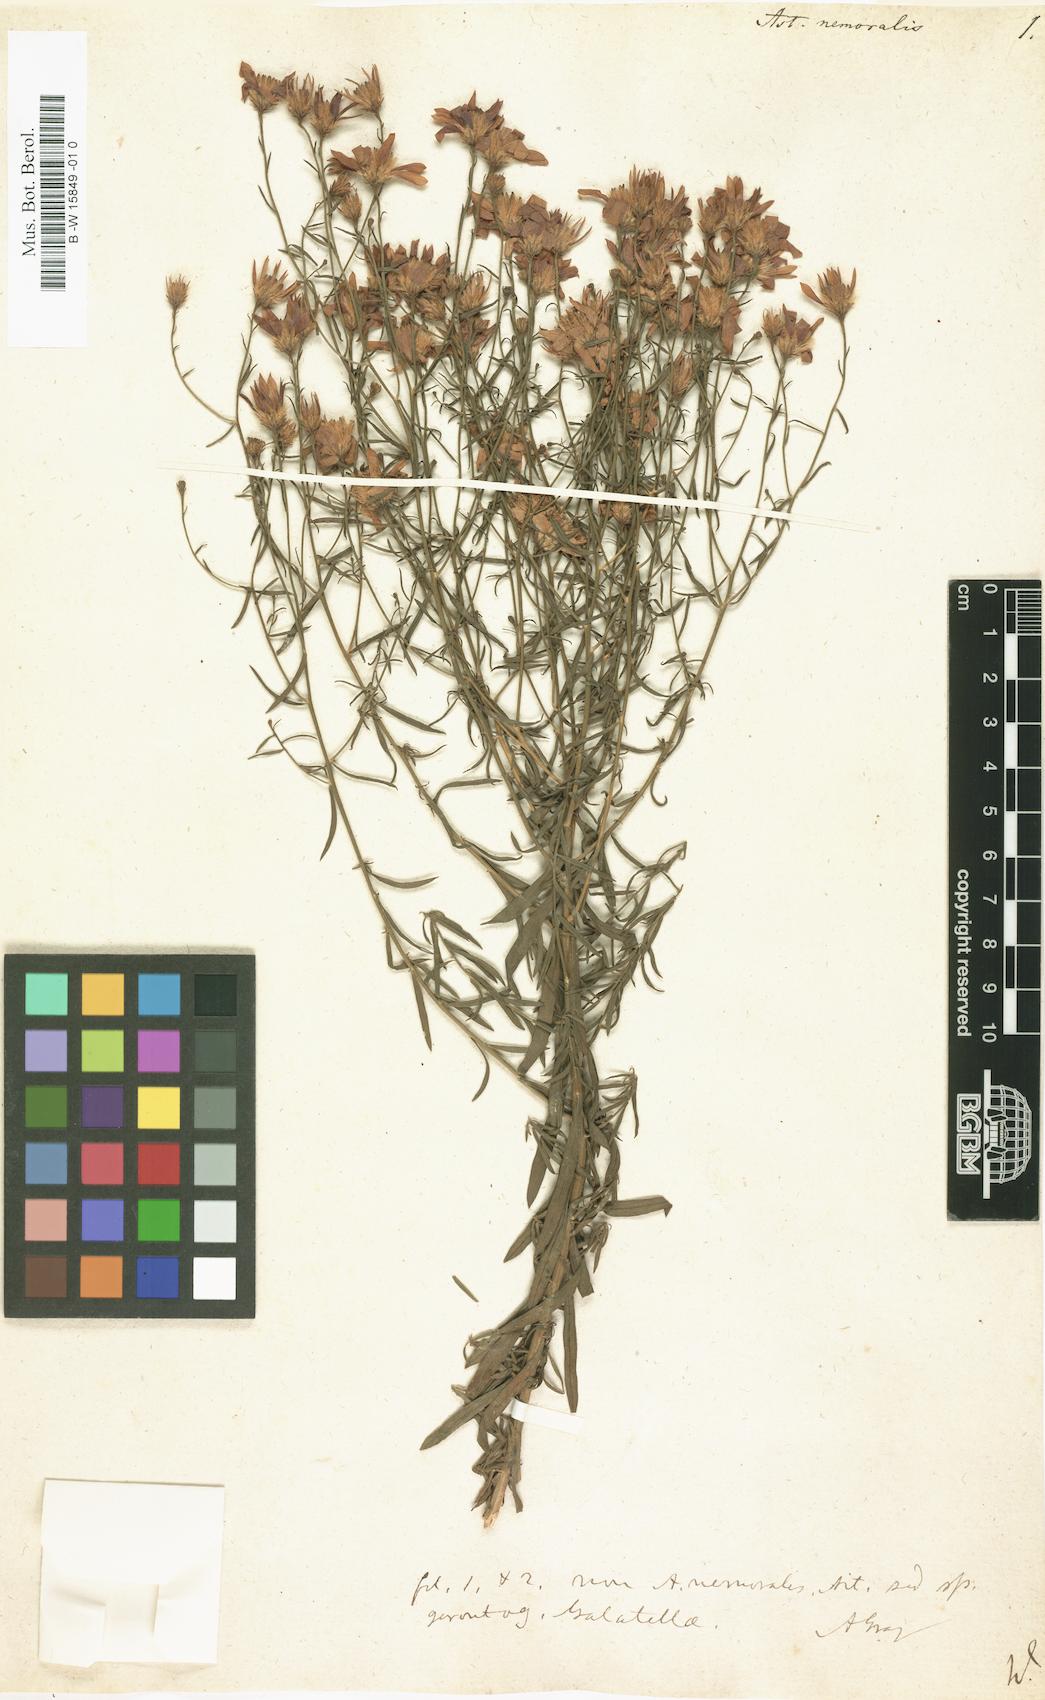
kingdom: Plantae
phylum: Tracheophyta
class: Magnoliopsida
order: Asterales
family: Asteraceae
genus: Oclemena
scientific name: Oclemena nemoralis
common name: Bog aster
